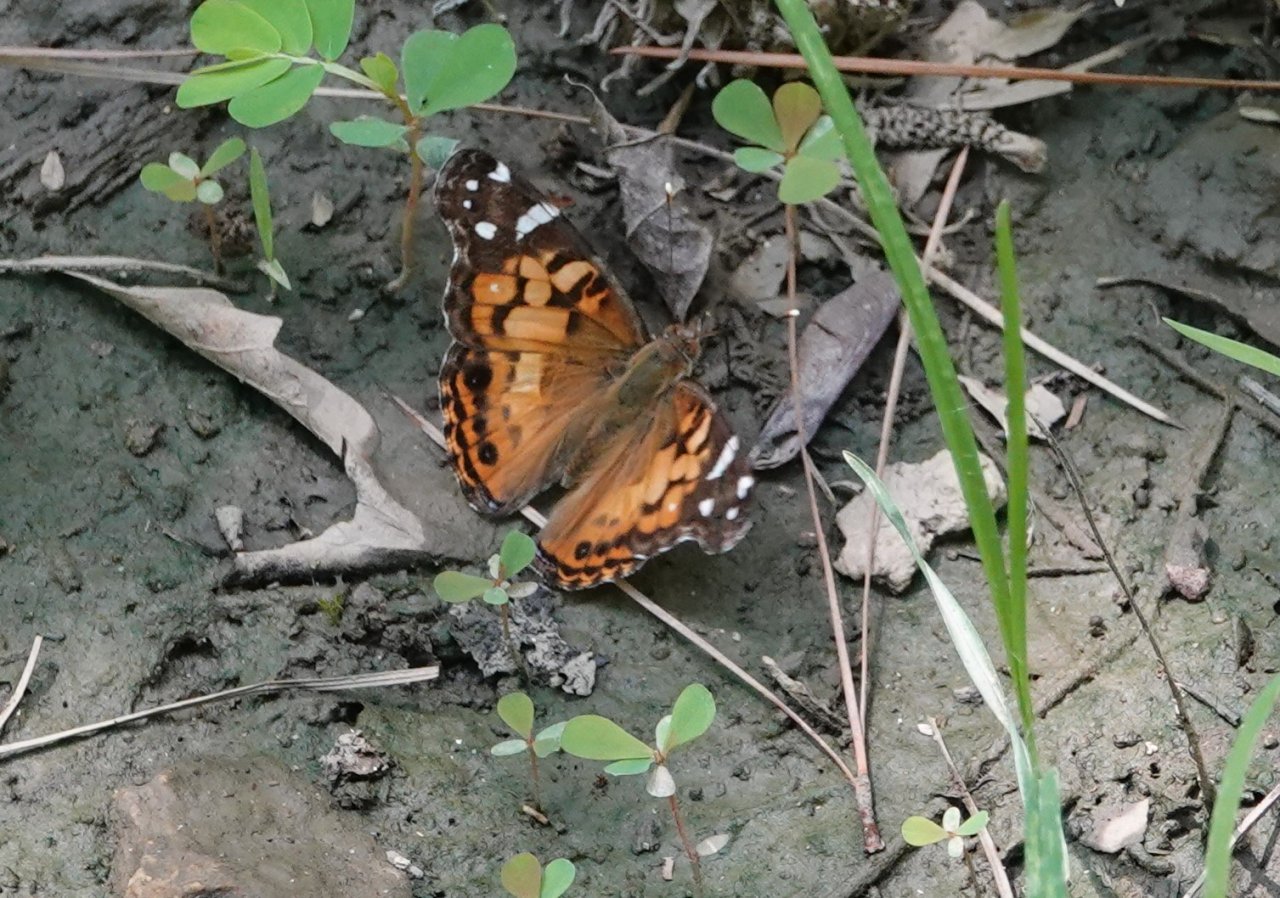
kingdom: Animalia
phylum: Arthropoda
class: Insecta
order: Lepidoptera
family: Nymphalidae
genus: Vanessa
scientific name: Vanessa virginiensis
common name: American Lady
